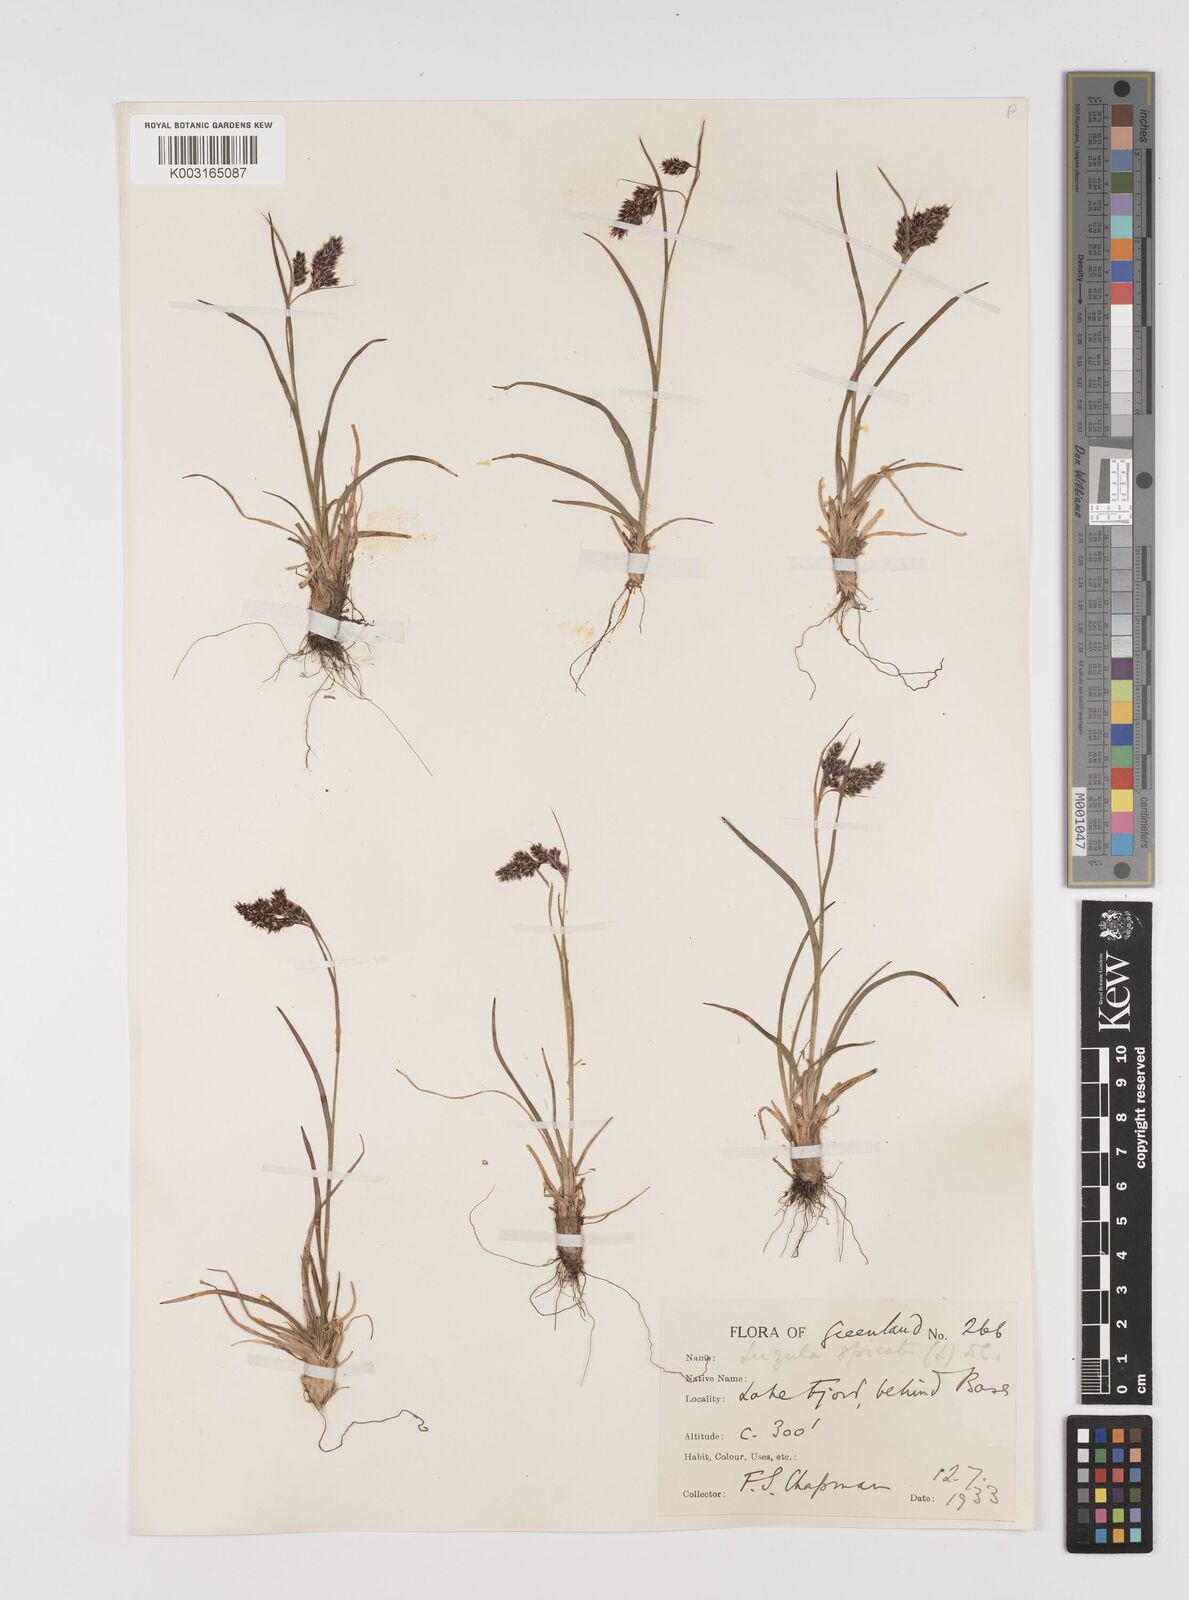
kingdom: Plantae
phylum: Tracheophyta
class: Liliopsida
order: Poales
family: Juncaceae
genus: Luzula
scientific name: Luzula spicata
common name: Spiked wood-rush
